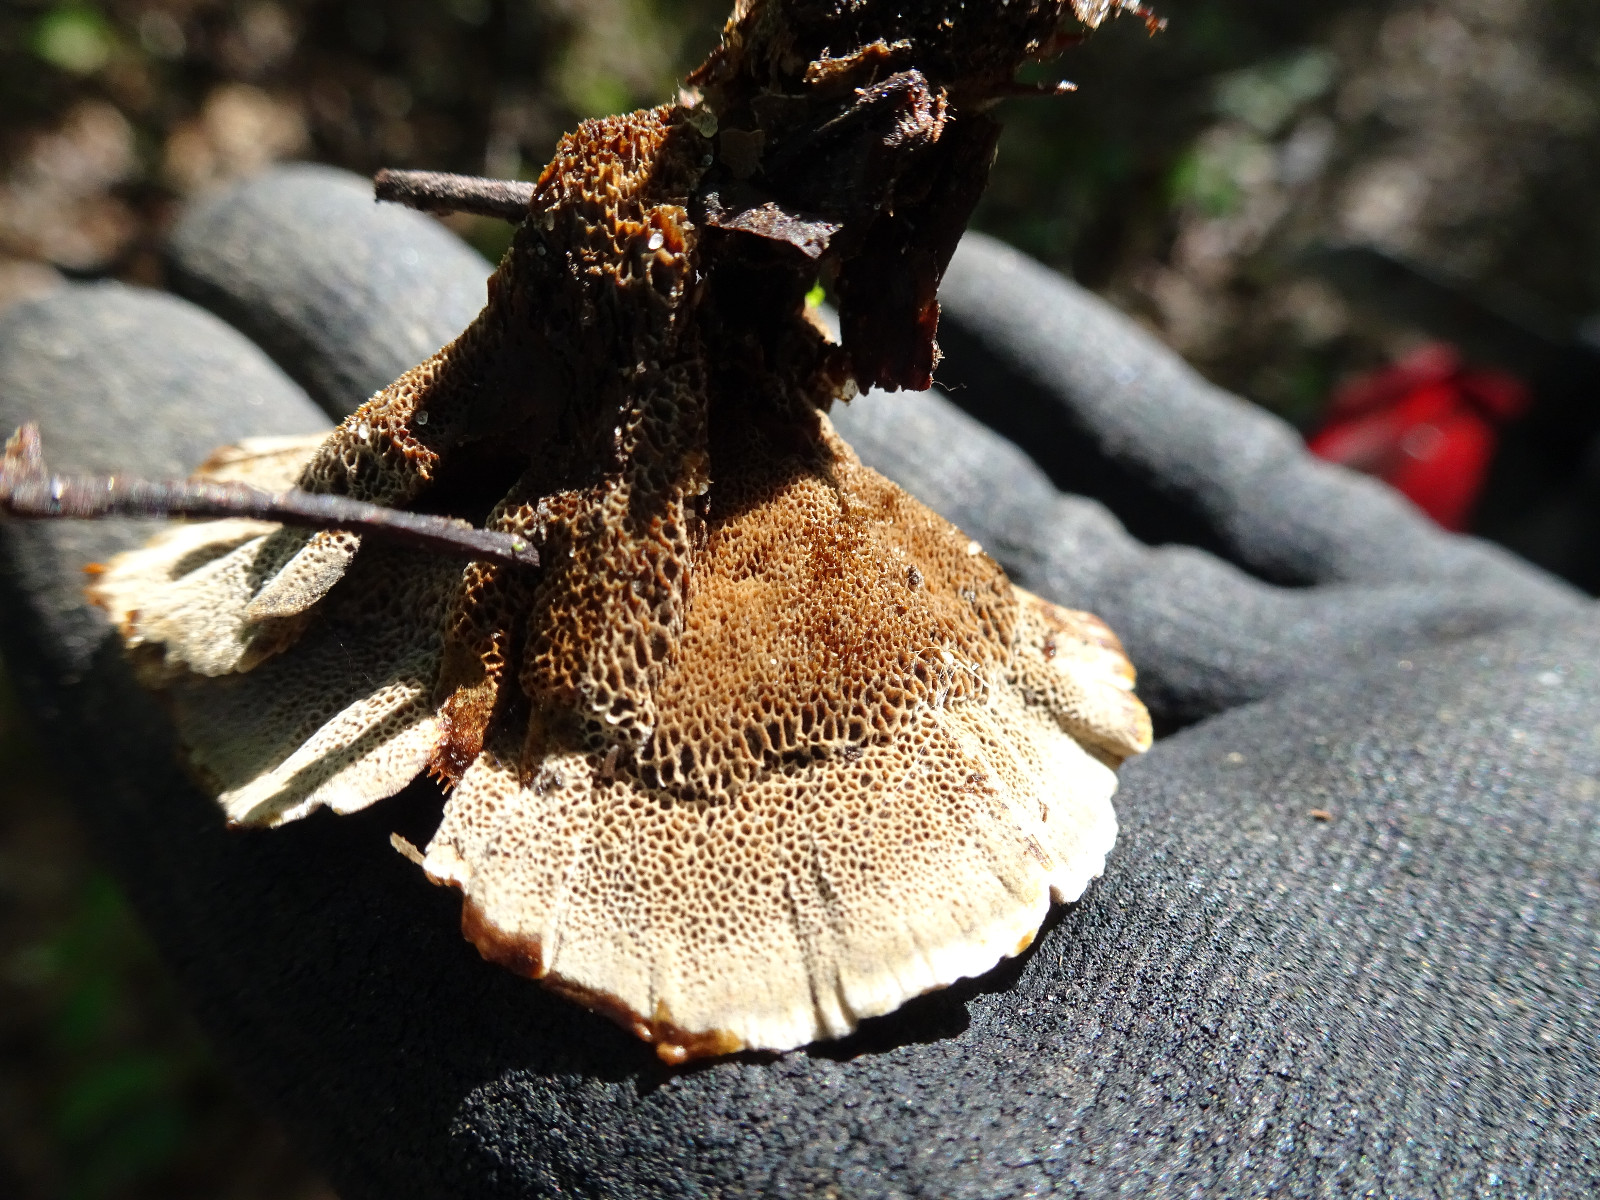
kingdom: Fungi
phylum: Basidiomycota
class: Agaricomycetes
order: Hymenochaetales
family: Hymenochaetaceae
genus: Coltricia
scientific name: Coltricia perennis
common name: almindelig sandporesvamp
